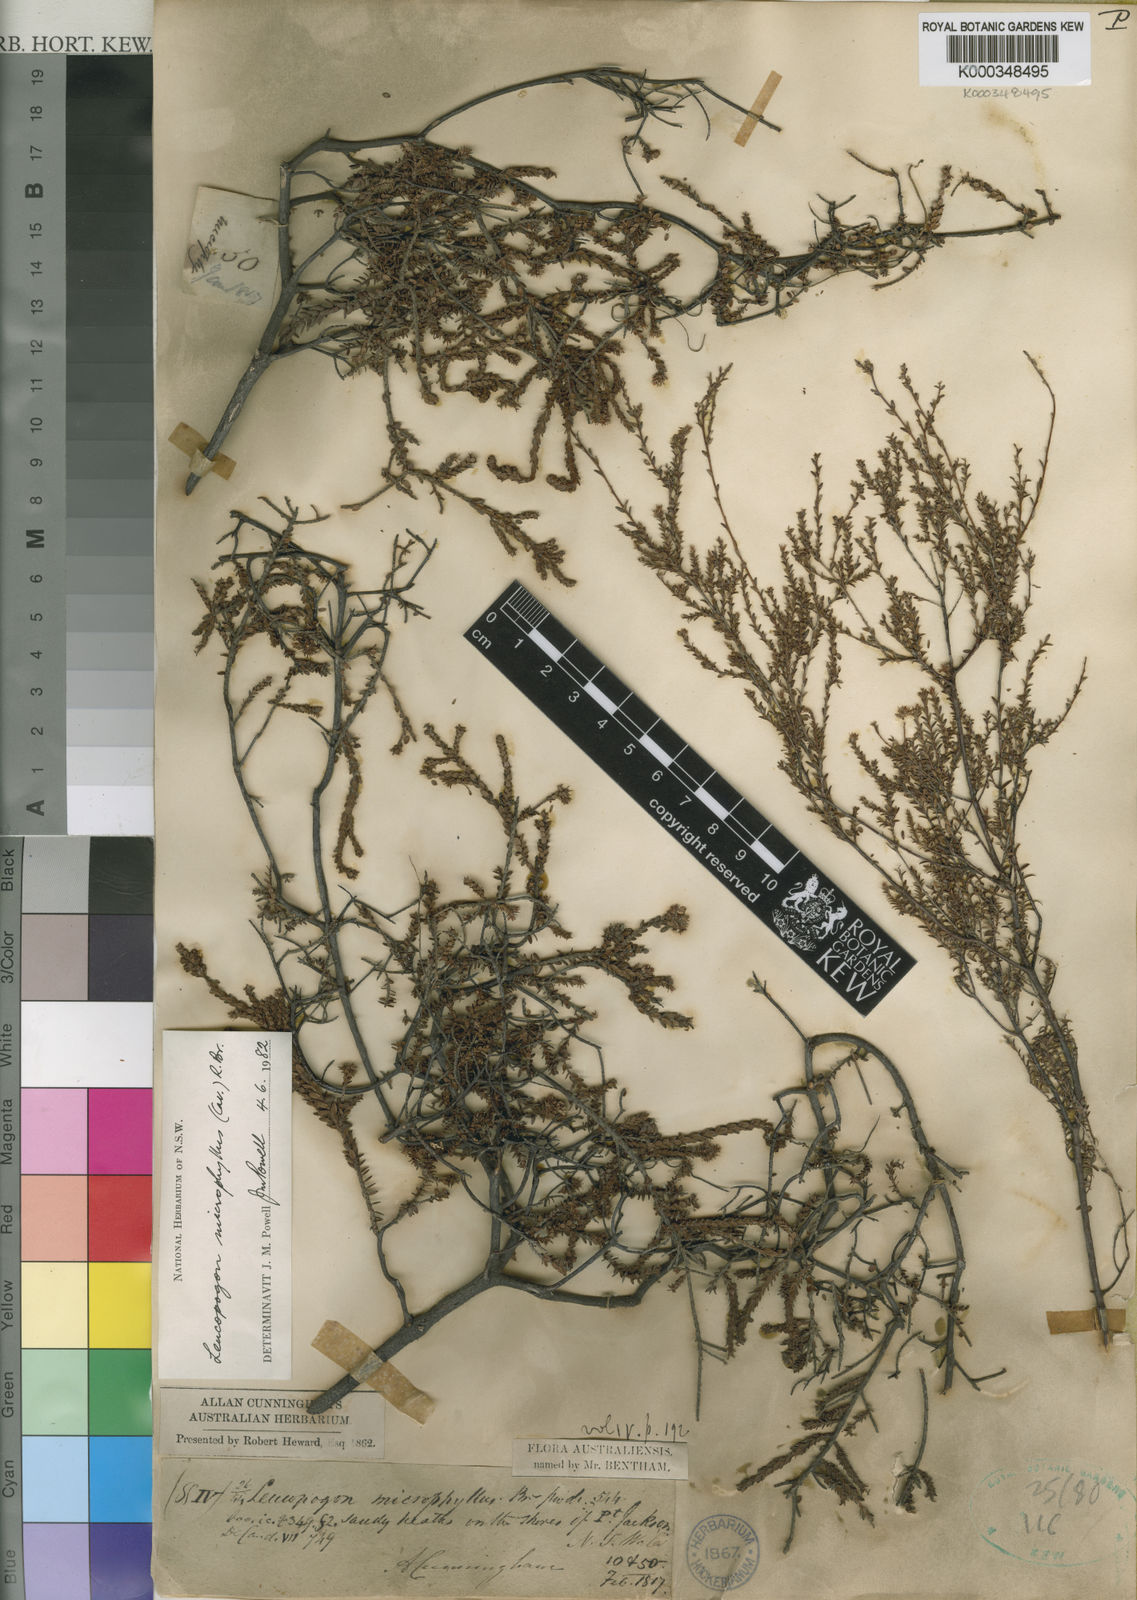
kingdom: Plantae
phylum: Tracheophyta
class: Magnoliopsida
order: Ericales
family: Ericaceae
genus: Leucopogon
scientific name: Leucopogon microphyllus
